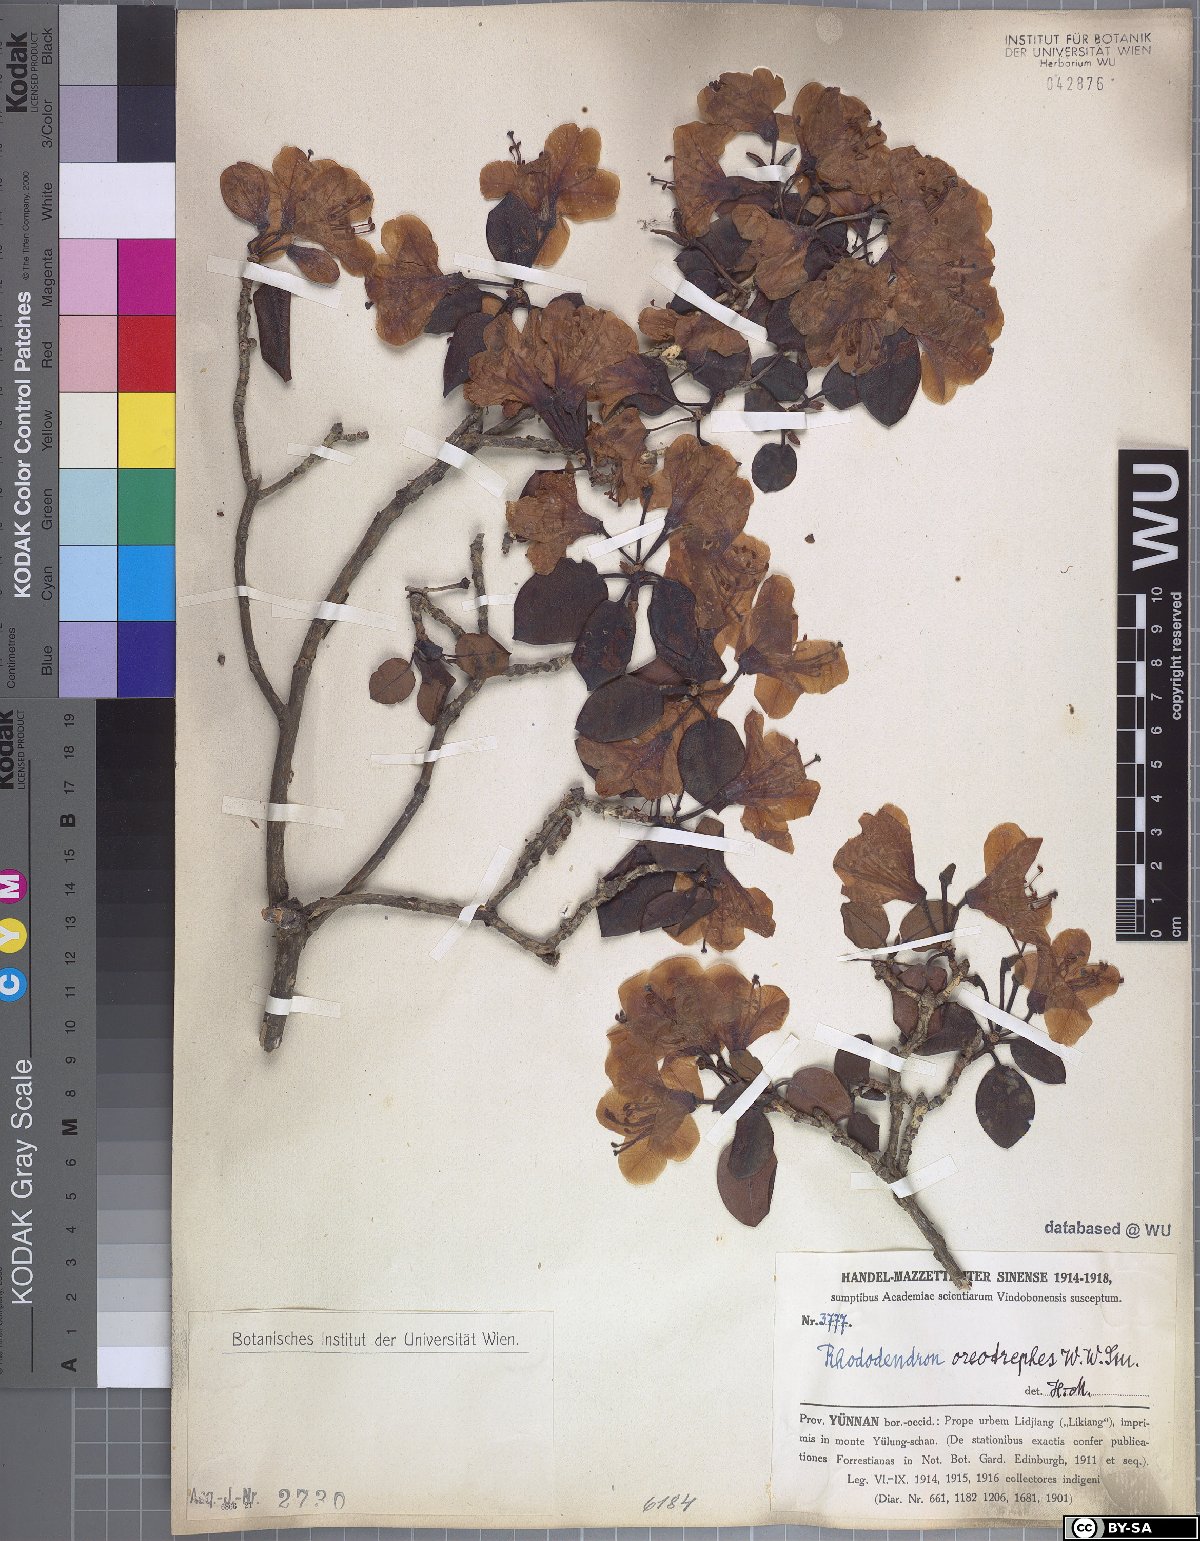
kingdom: Plantae
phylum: Tracheophyta
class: Magnoliopsida
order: Ericales
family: Ericaceae
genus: Rhododendron
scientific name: Rhododendron oreotrephes
